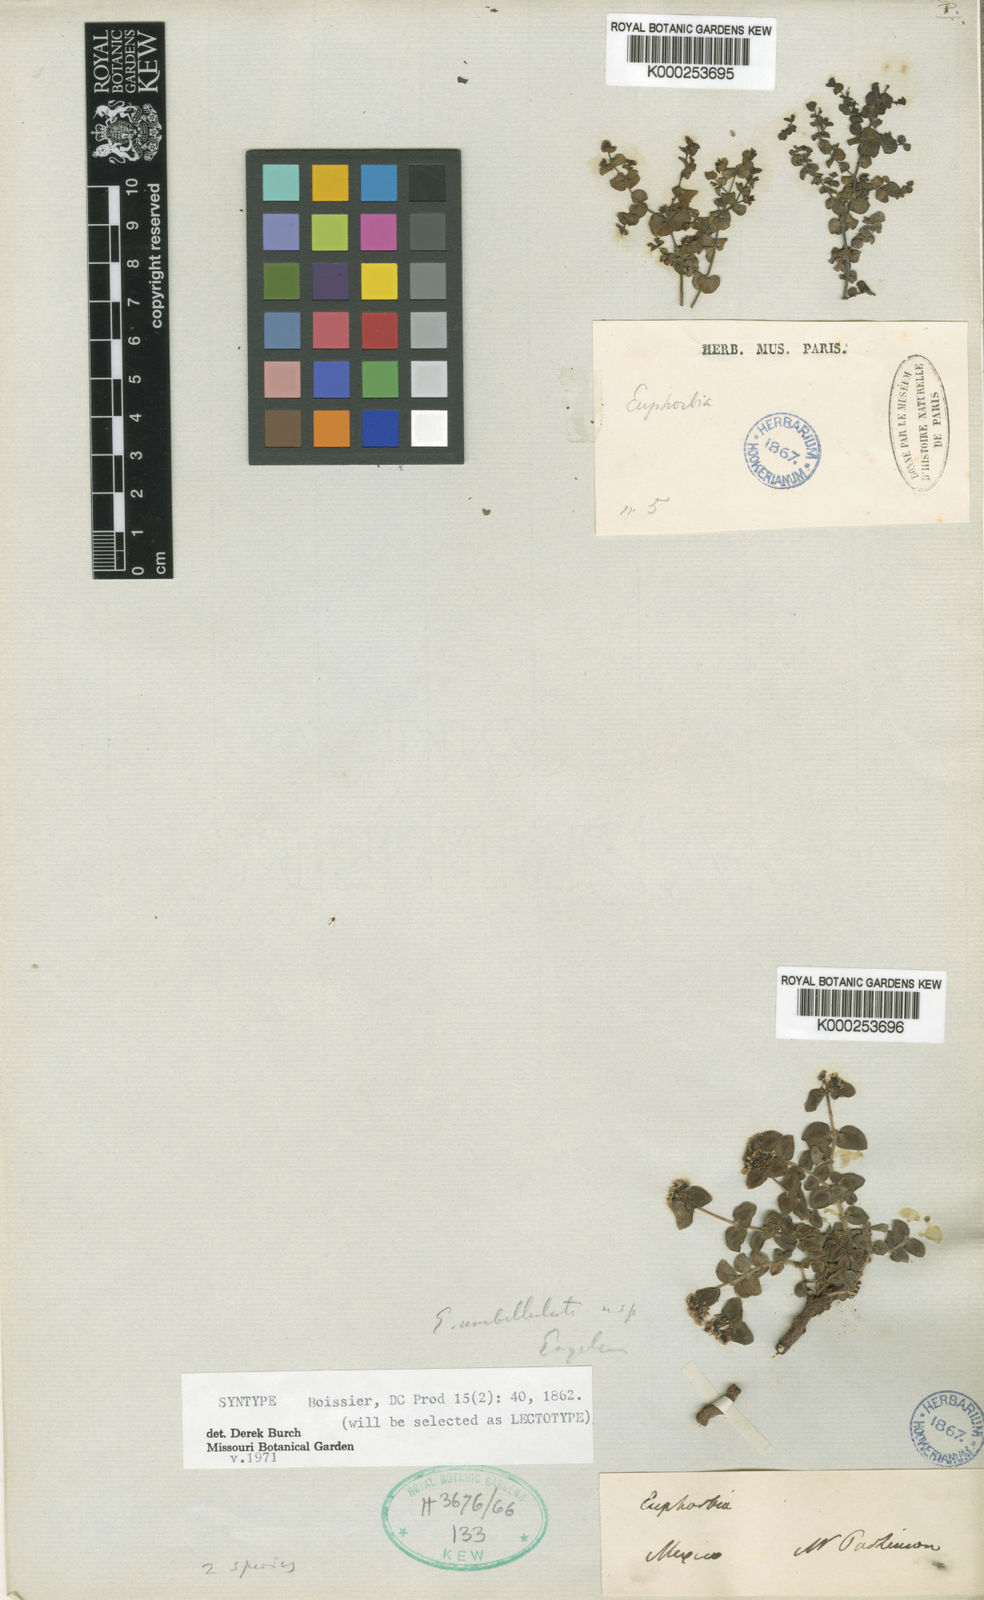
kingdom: Plantae
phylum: Tracheophyta
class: Magnoliopsida
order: Malpighiales
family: Euphorbiaceae
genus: Euphorbia
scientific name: Euphorbia umbellulata
